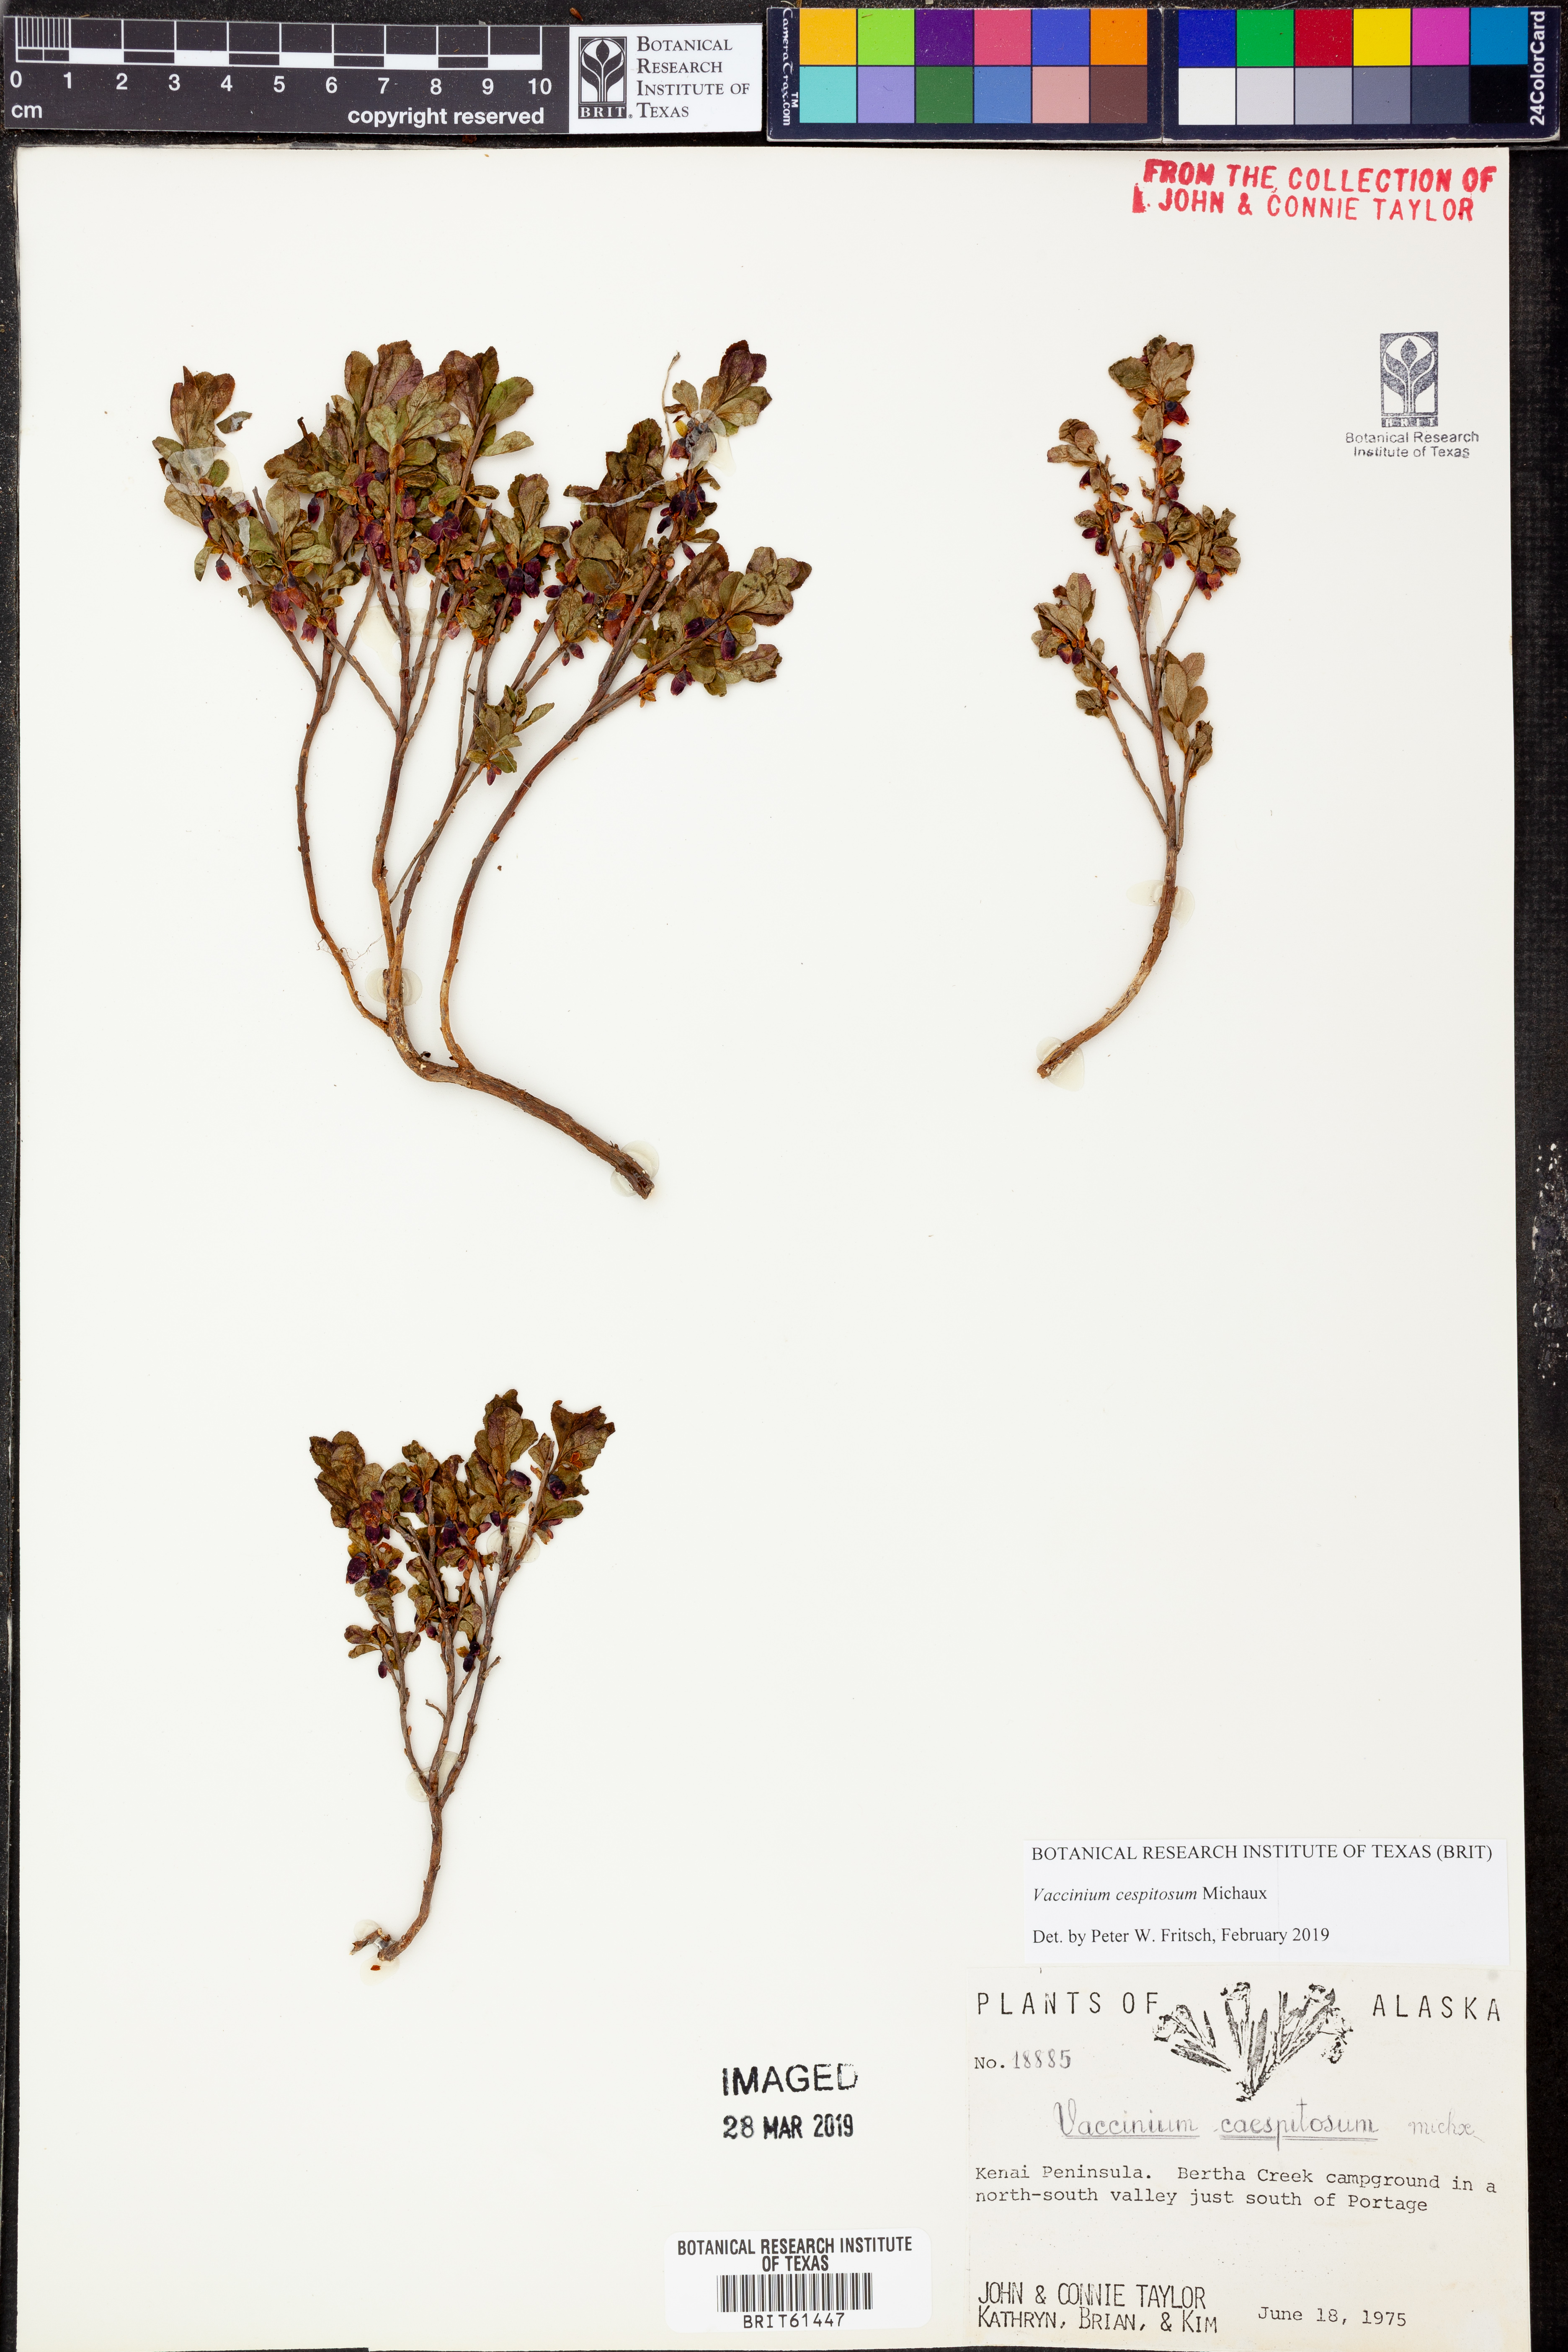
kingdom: Plantae
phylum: Tracheophyta
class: Magnoliopsida
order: Ericales
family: Ericaceae
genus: Vaccinium
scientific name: Vaccinium cespitosum
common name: Dwarf bilberry
